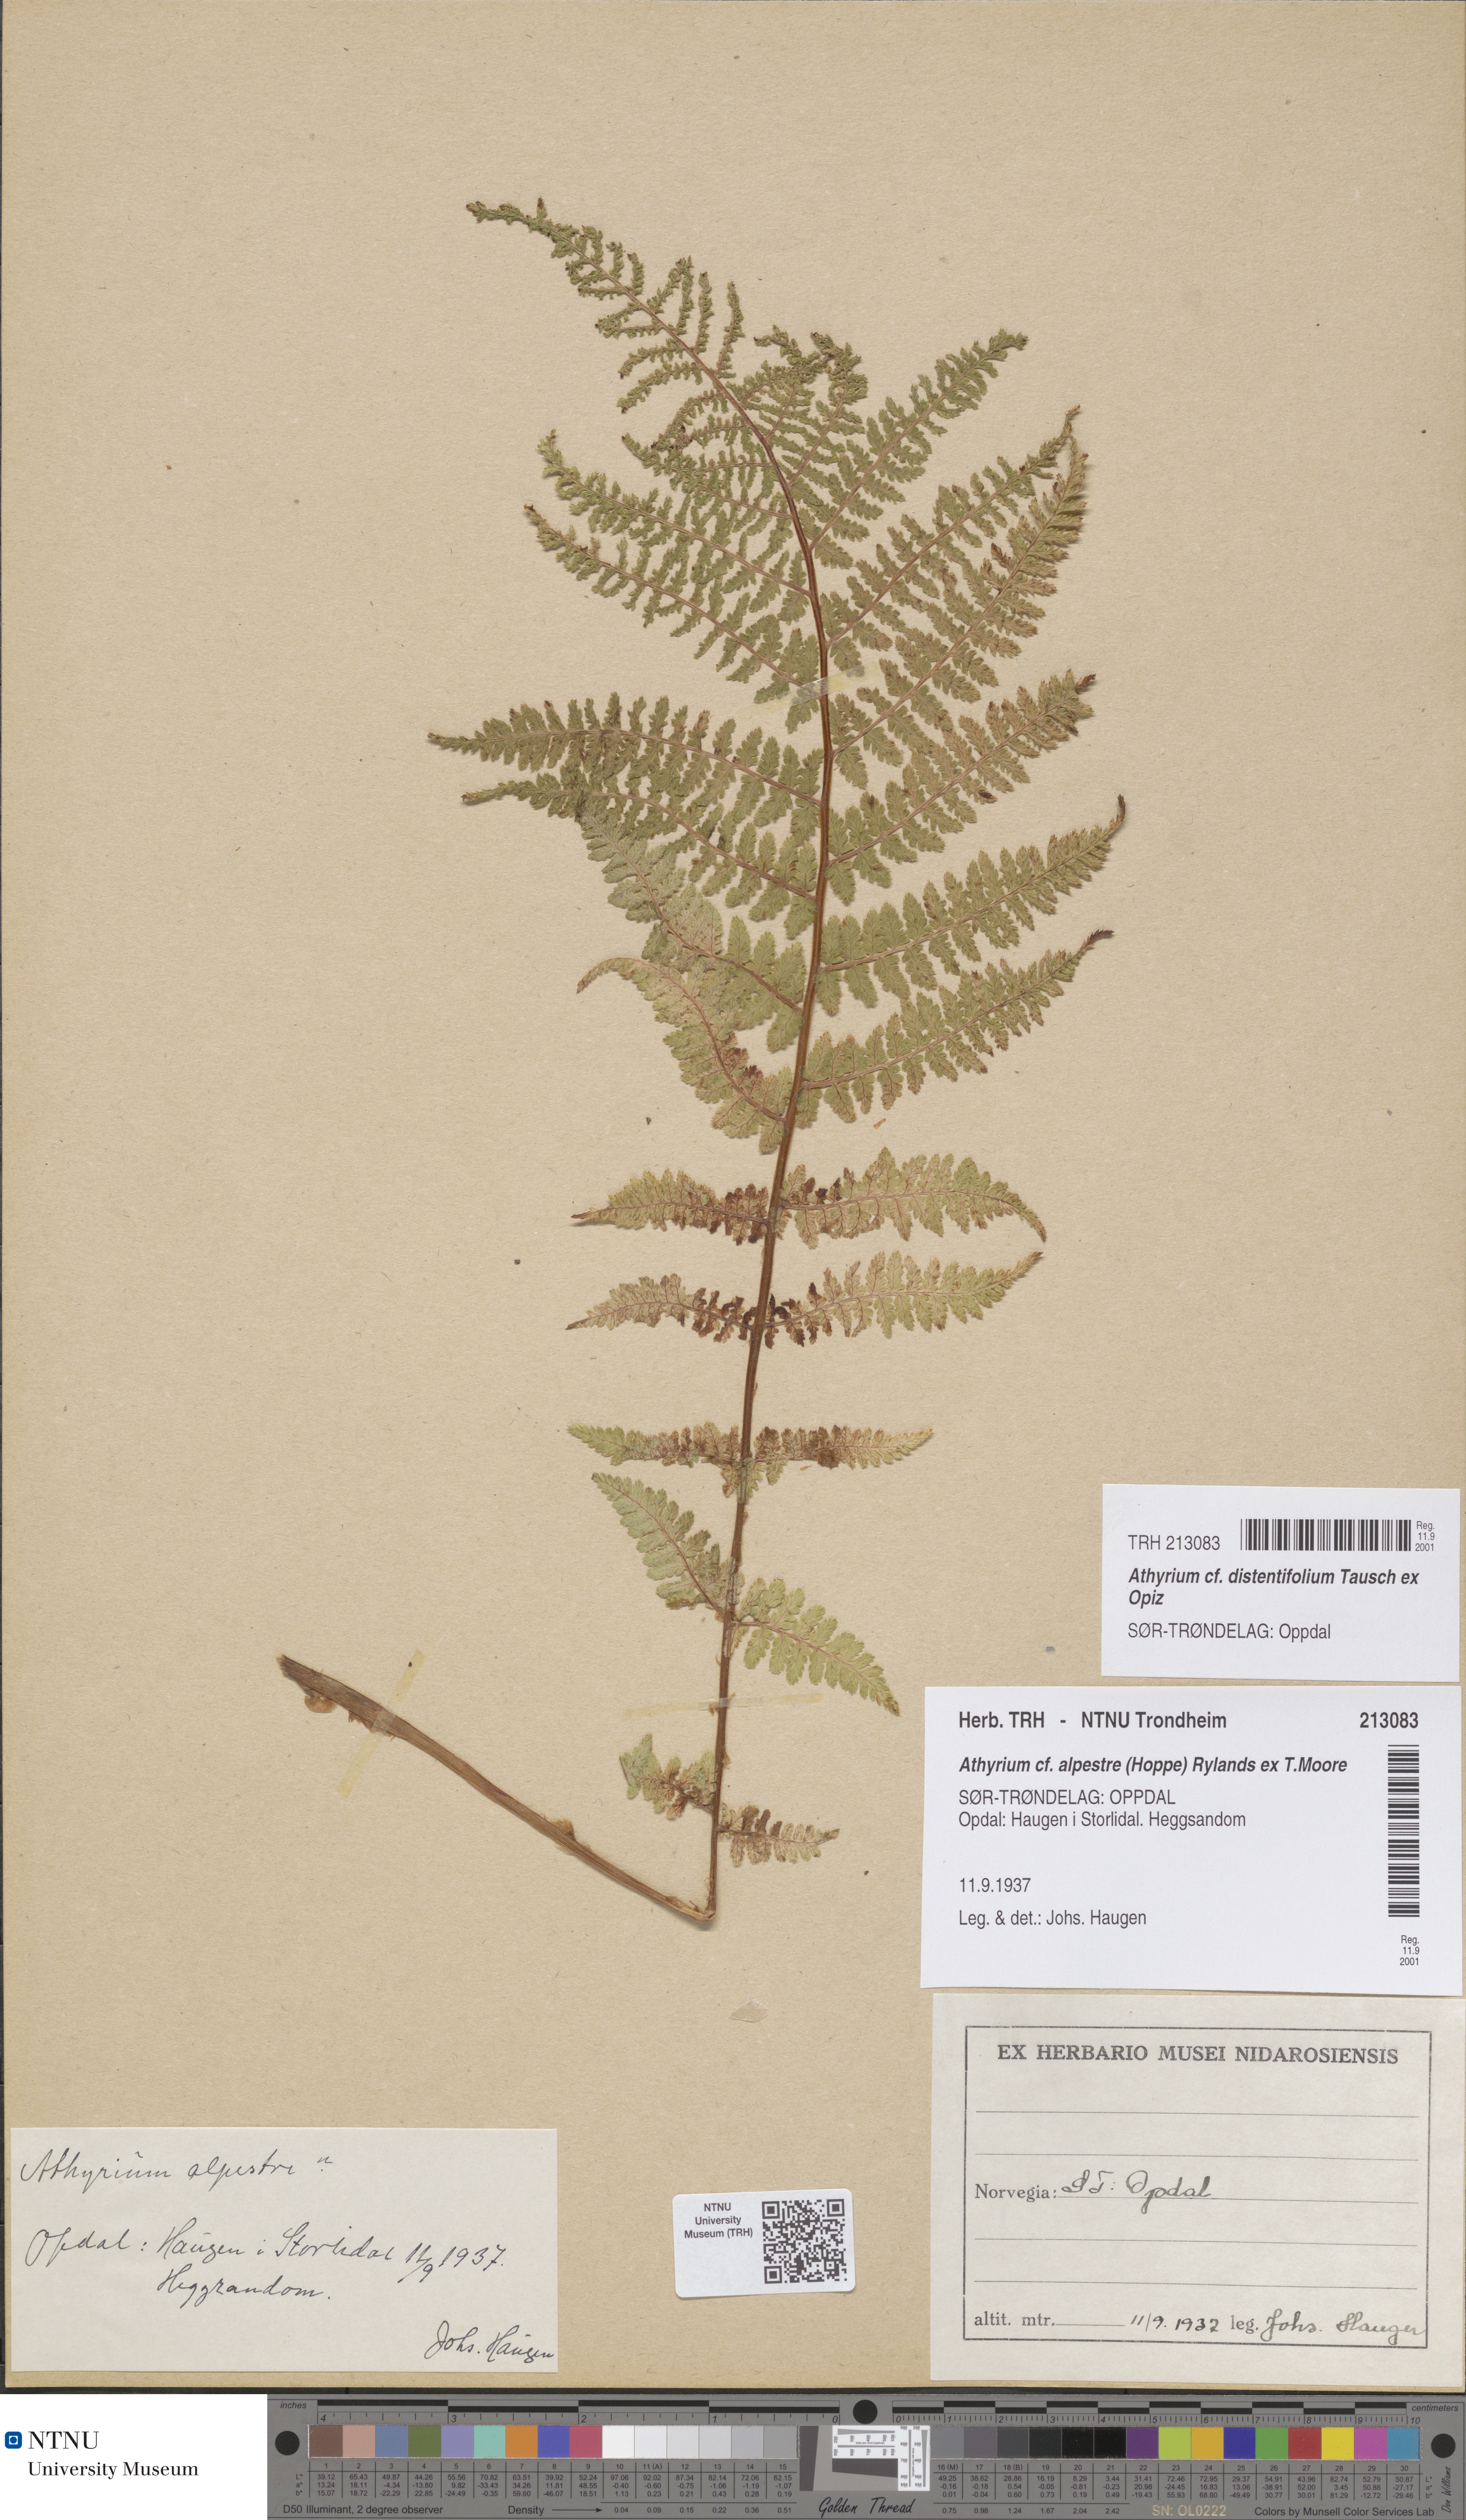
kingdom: Plantae
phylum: Tracheophyta
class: Polypodiopsida
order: Polypodiales
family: Athyriaceae
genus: Pseudathyrium
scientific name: Pseudathyrium alpestre
